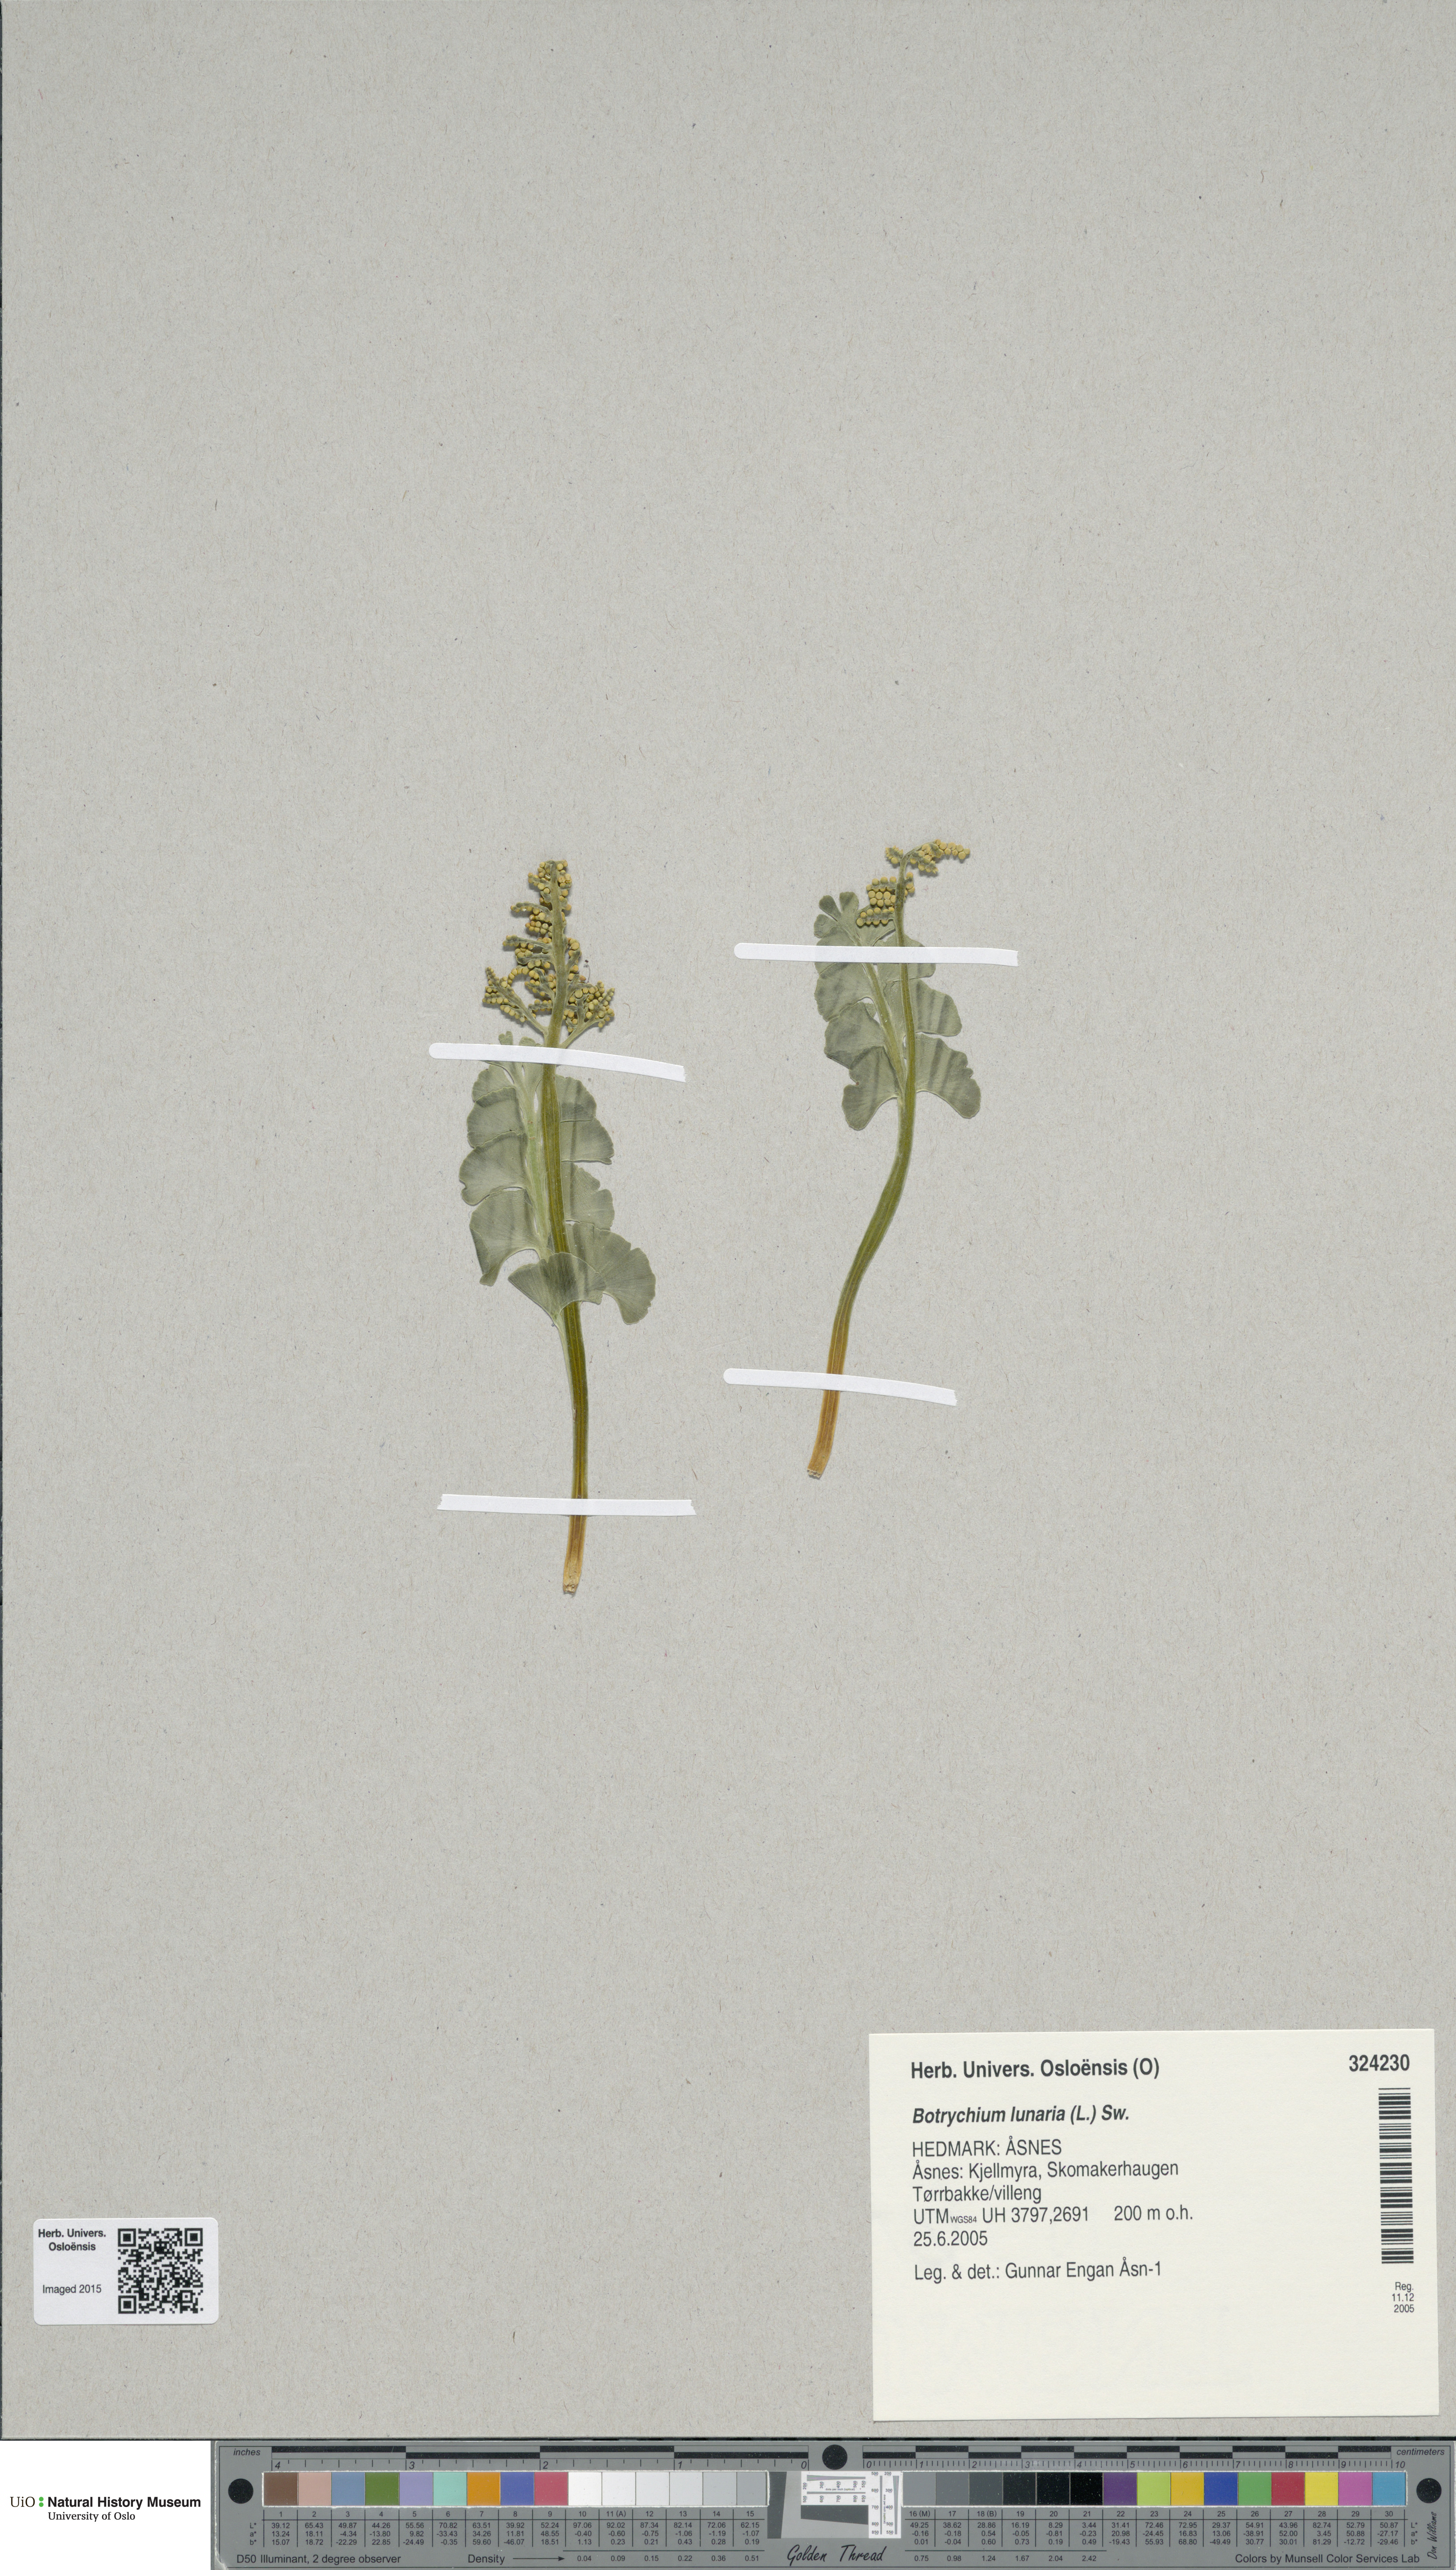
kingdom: Plantae
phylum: Tracheophyta
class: Polypodiopsida
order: Ophioglossales
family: Ophioglossaceae
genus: Botrychium
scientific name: Botrychium lunaria
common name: Moonwort
